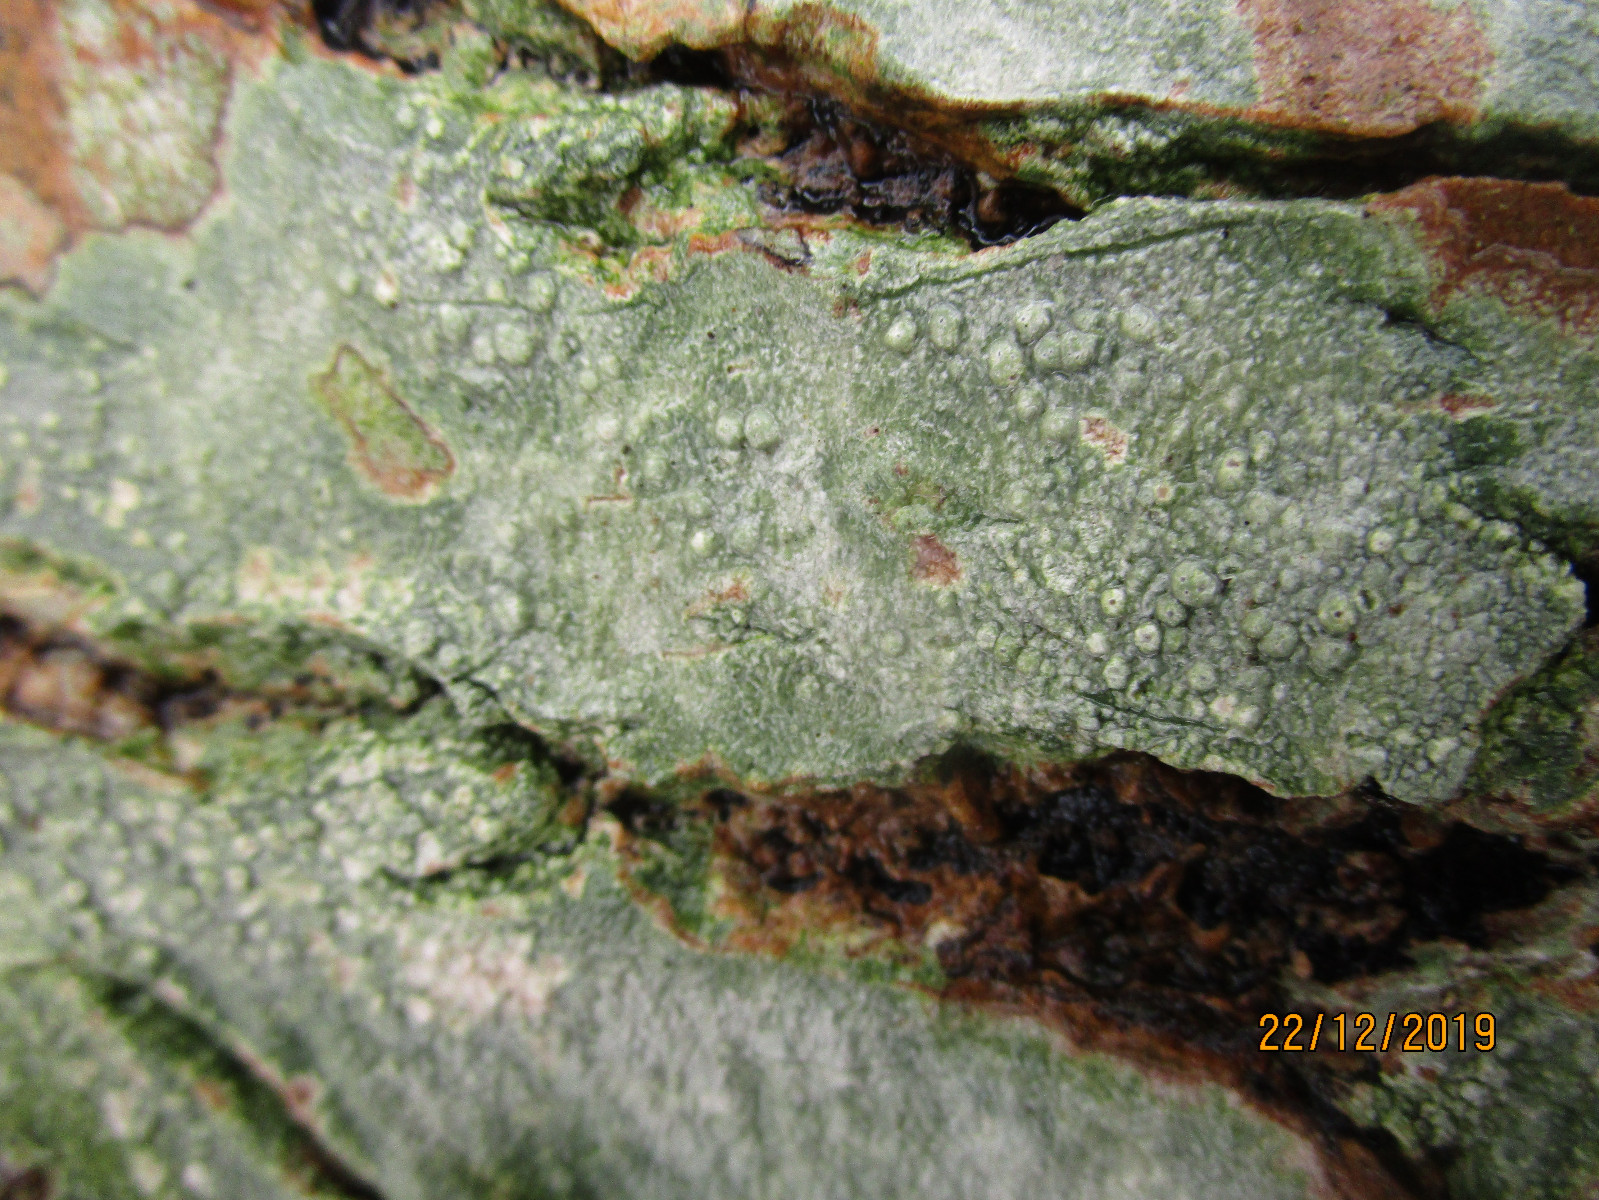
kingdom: Fungi
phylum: Ascomycota
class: Lecanoromycetes
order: Pertusariales
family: Pertusariaceae
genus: Pertusaria
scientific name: Pertusaria pertusa
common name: almindelig prikvortelav
